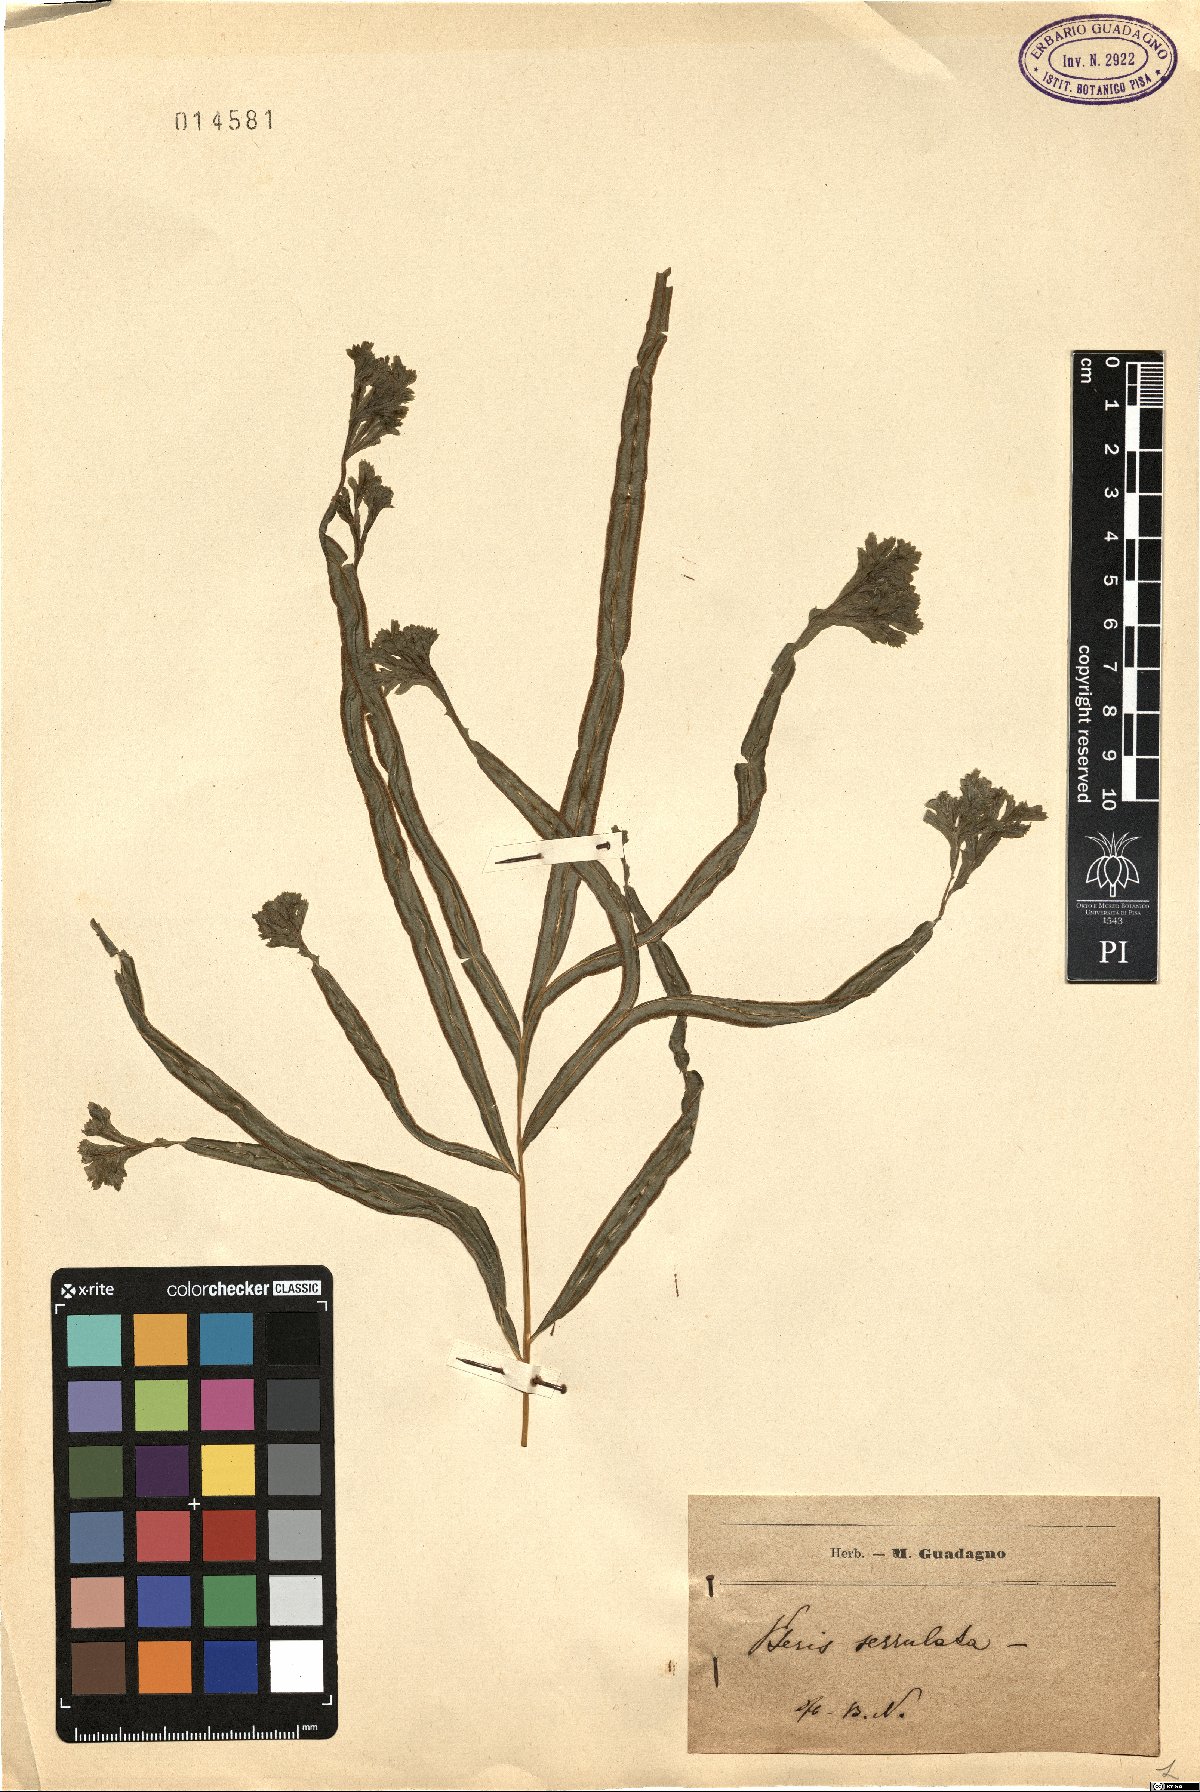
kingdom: Plantae
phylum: Tracheophyta
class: Polypodiopsida
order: Polypodiales
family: Pteridaceae
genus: Pteris
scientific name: Pteris multifida
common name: Spider brake
